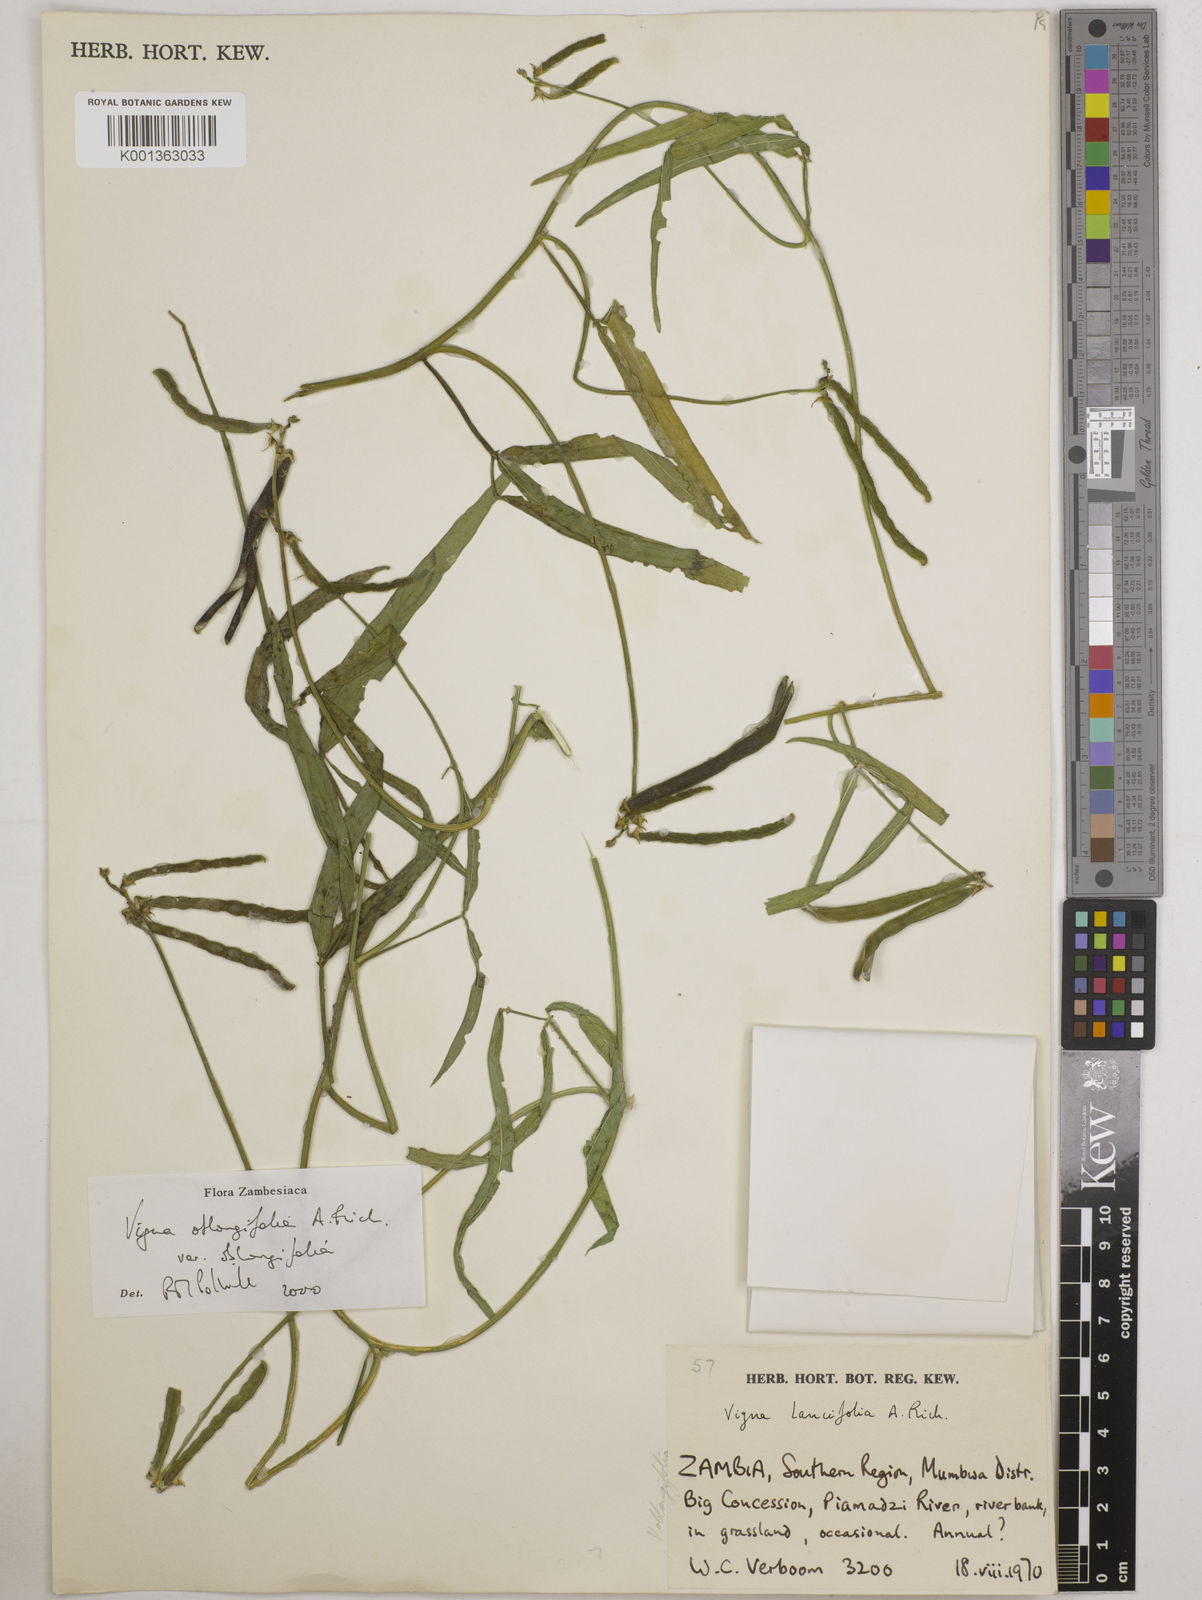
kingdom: Plantae
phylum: Tracheophyta
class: Magnoliopsida
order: Fabales
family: Fabaceae
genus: Vigna
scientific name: Vigna oblongifolia
